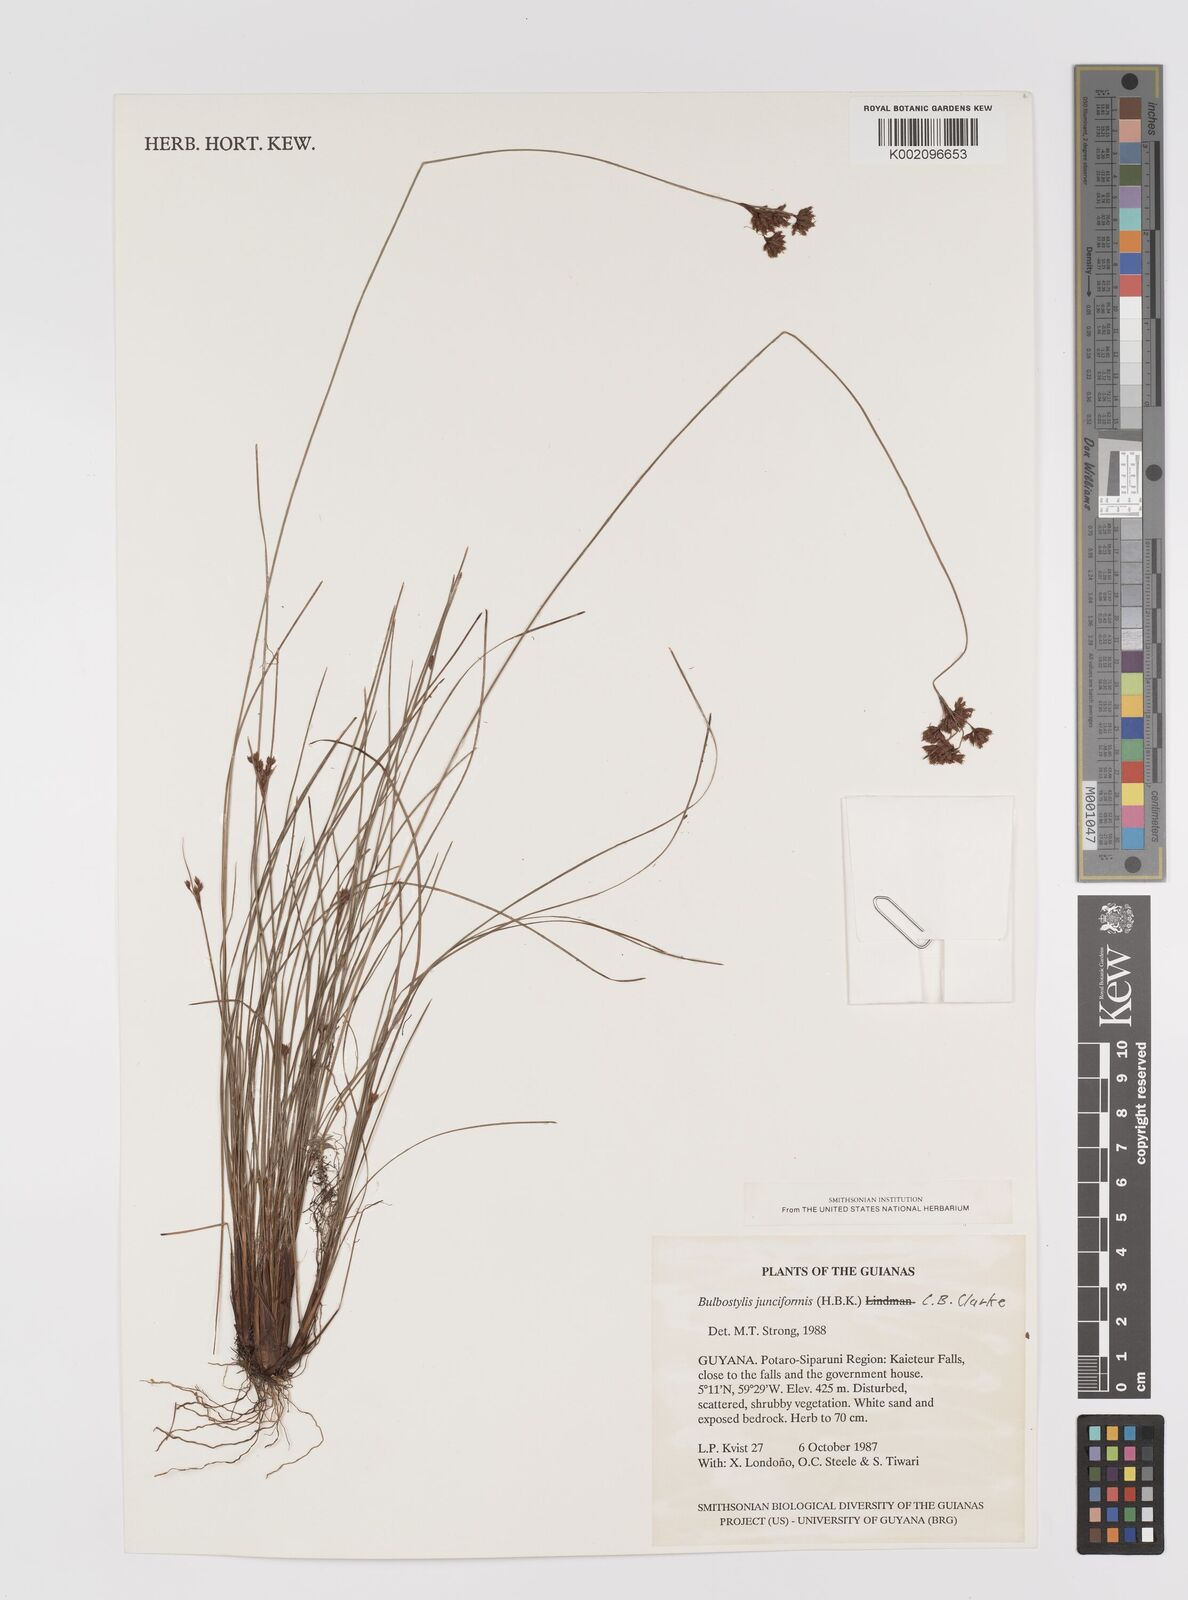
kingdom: Plantae
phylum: Tracheophyta
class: Liliopsida
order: Poales
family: Cyperaceae
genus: Bulbostylis
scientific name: Bulbostylis junciformis
